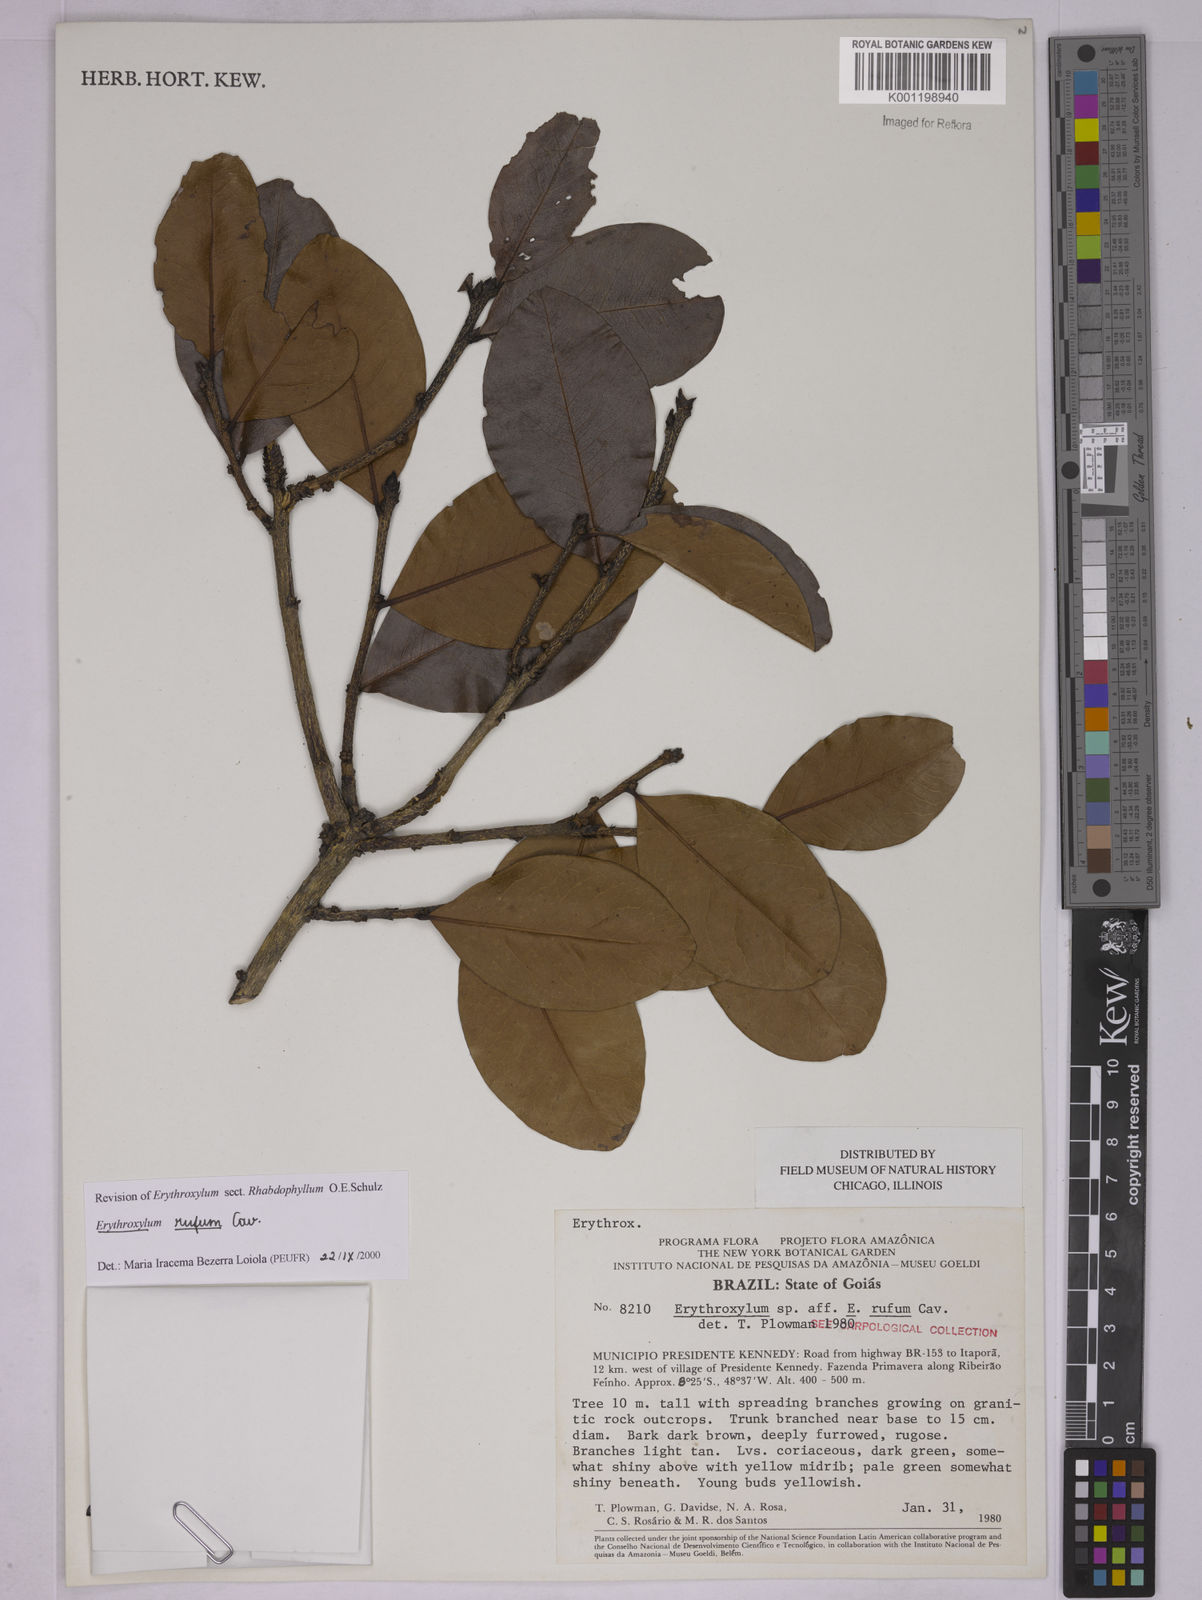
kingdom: Plantae
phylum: Tracheophyta
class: Magnoliopsida
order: Malpighiales
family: Erythroxylaceae
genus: Erythroxylum
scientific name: Erythroxylum rufum
